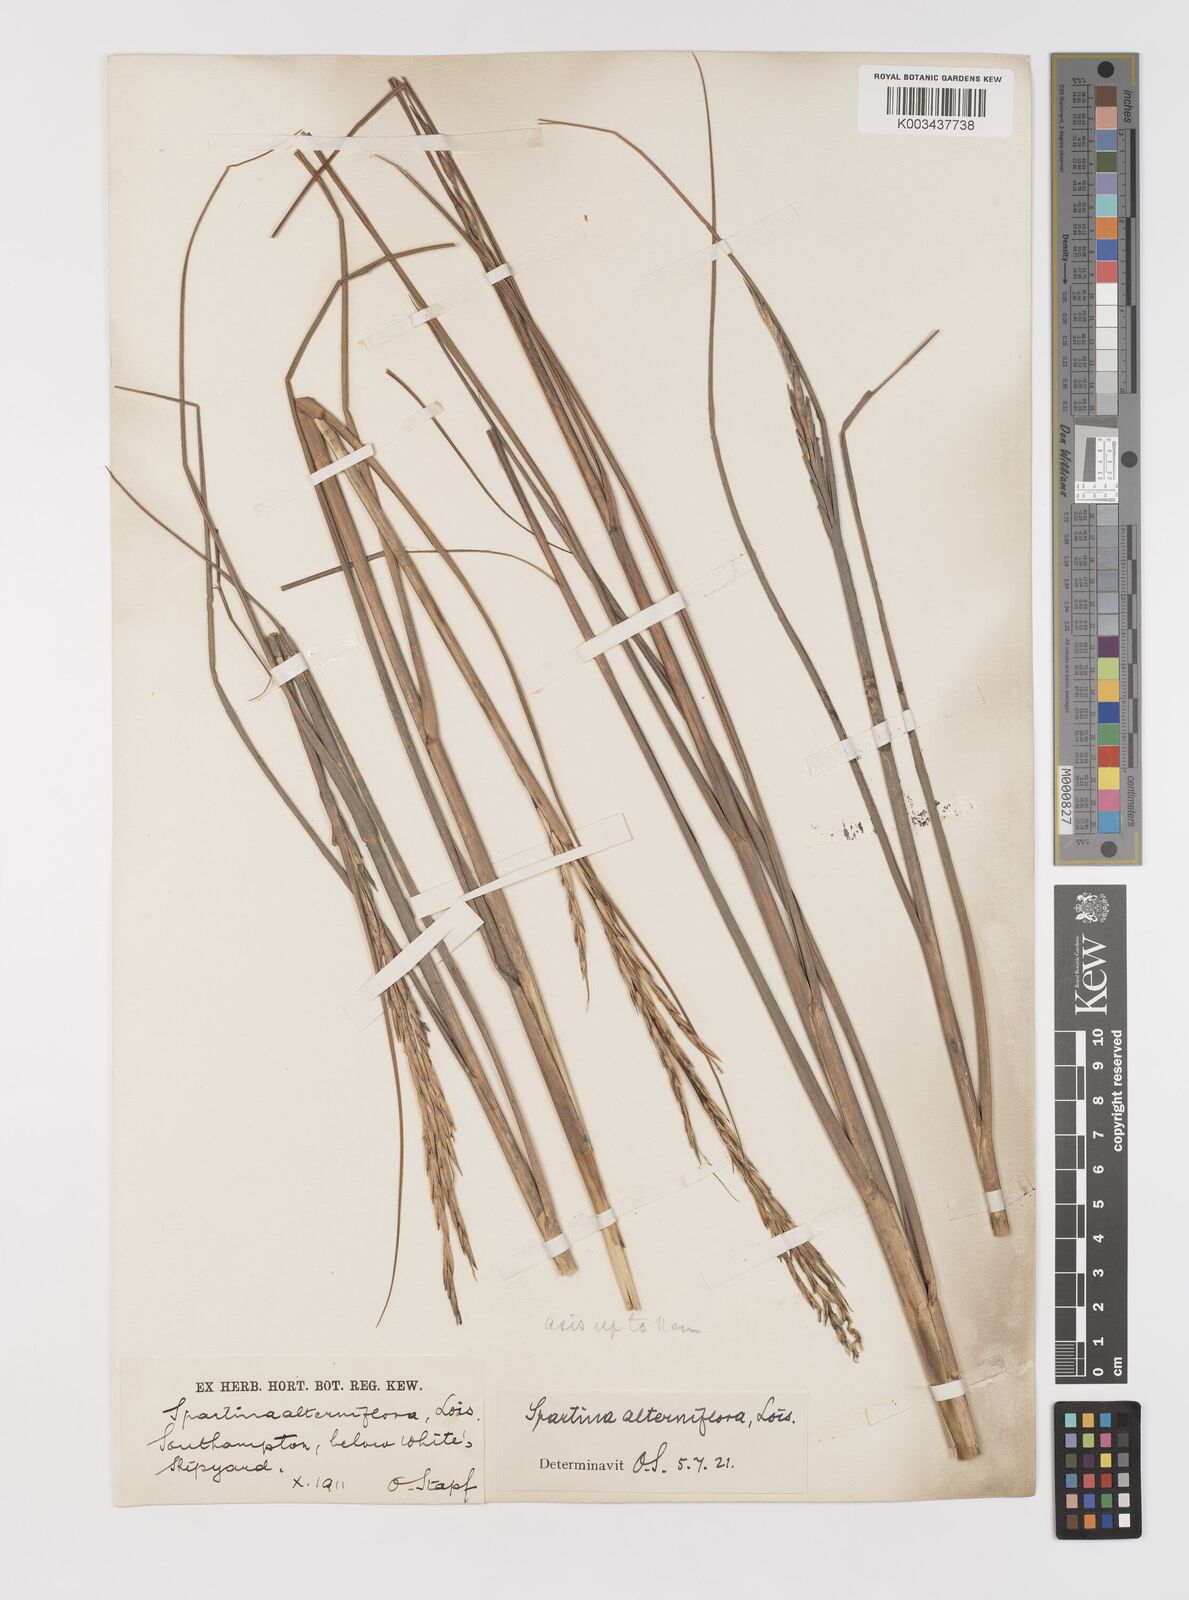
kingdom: Plantae
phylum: Tracheophyta
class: Liliopsida
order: Poales
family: Poaceae
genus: Sporobolus
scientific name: Sporobolus alterniflorus
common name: Atlantic cordgrass
